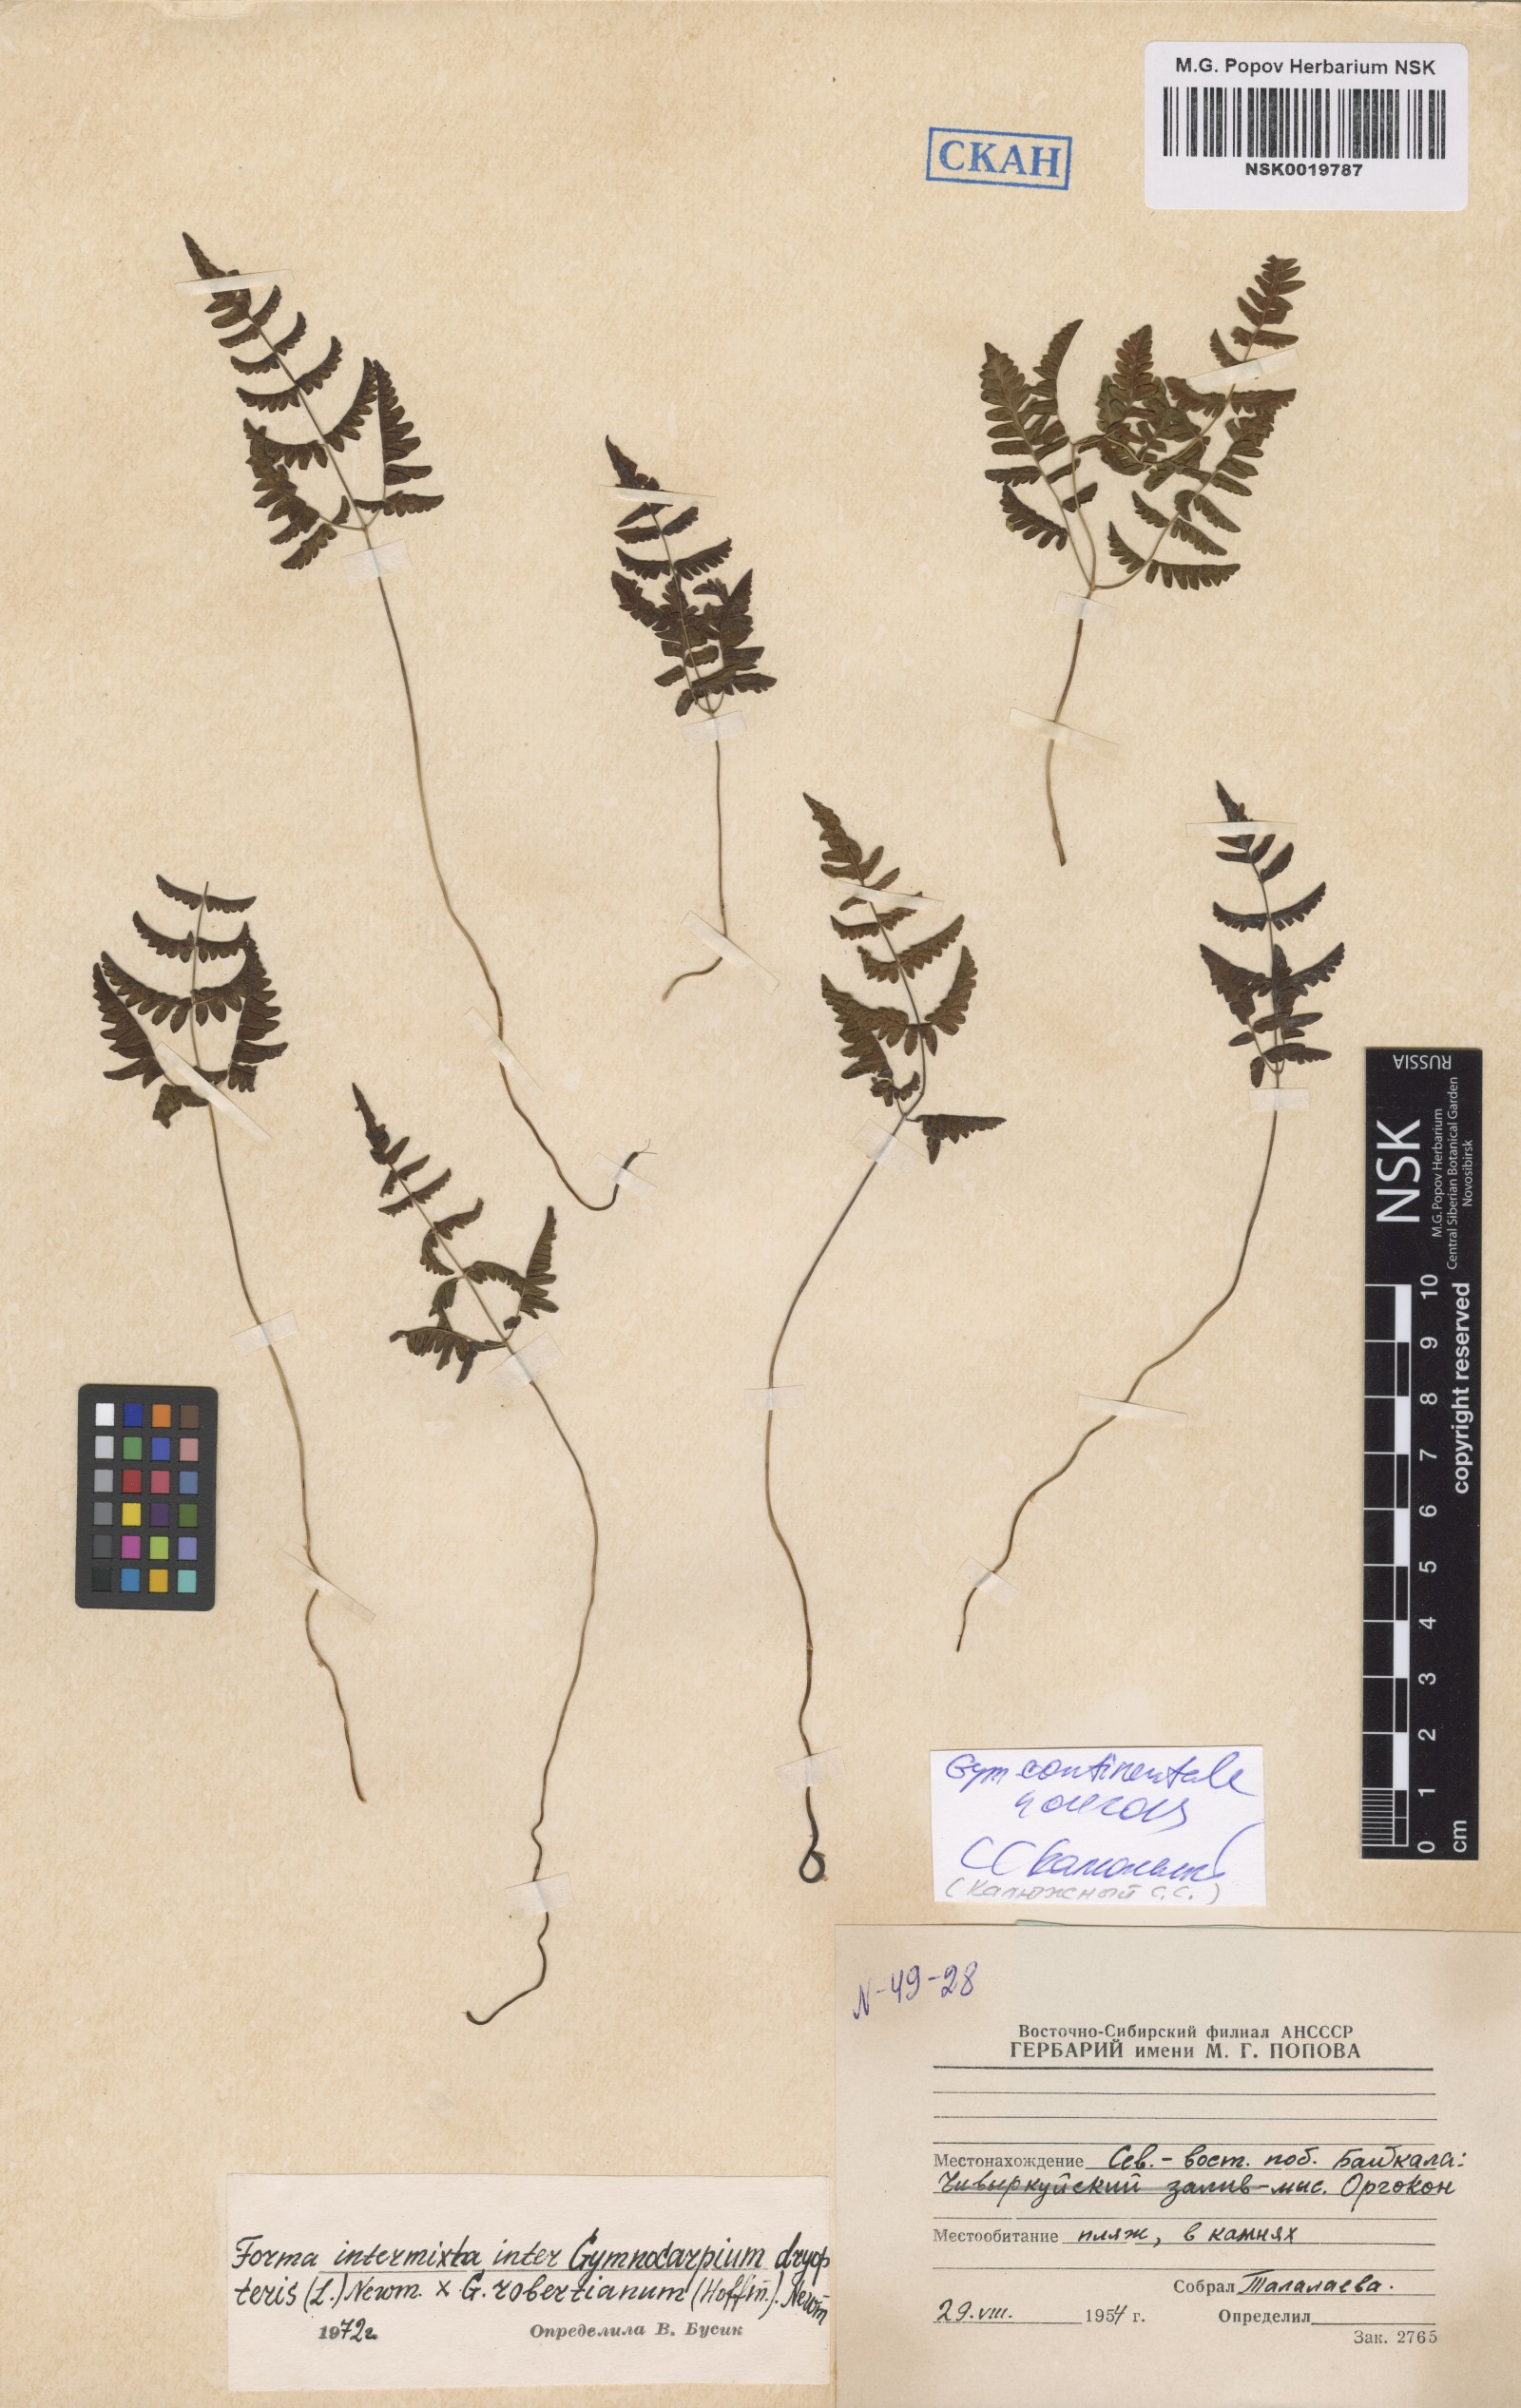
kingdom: Plantae
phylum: Tracheophyta
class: Polypodiopsida
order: Polypodiales
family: Cystopteridaceae
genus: Gymnocarpium
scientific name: Gymnocarpium continentale
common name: Asian oak fern
